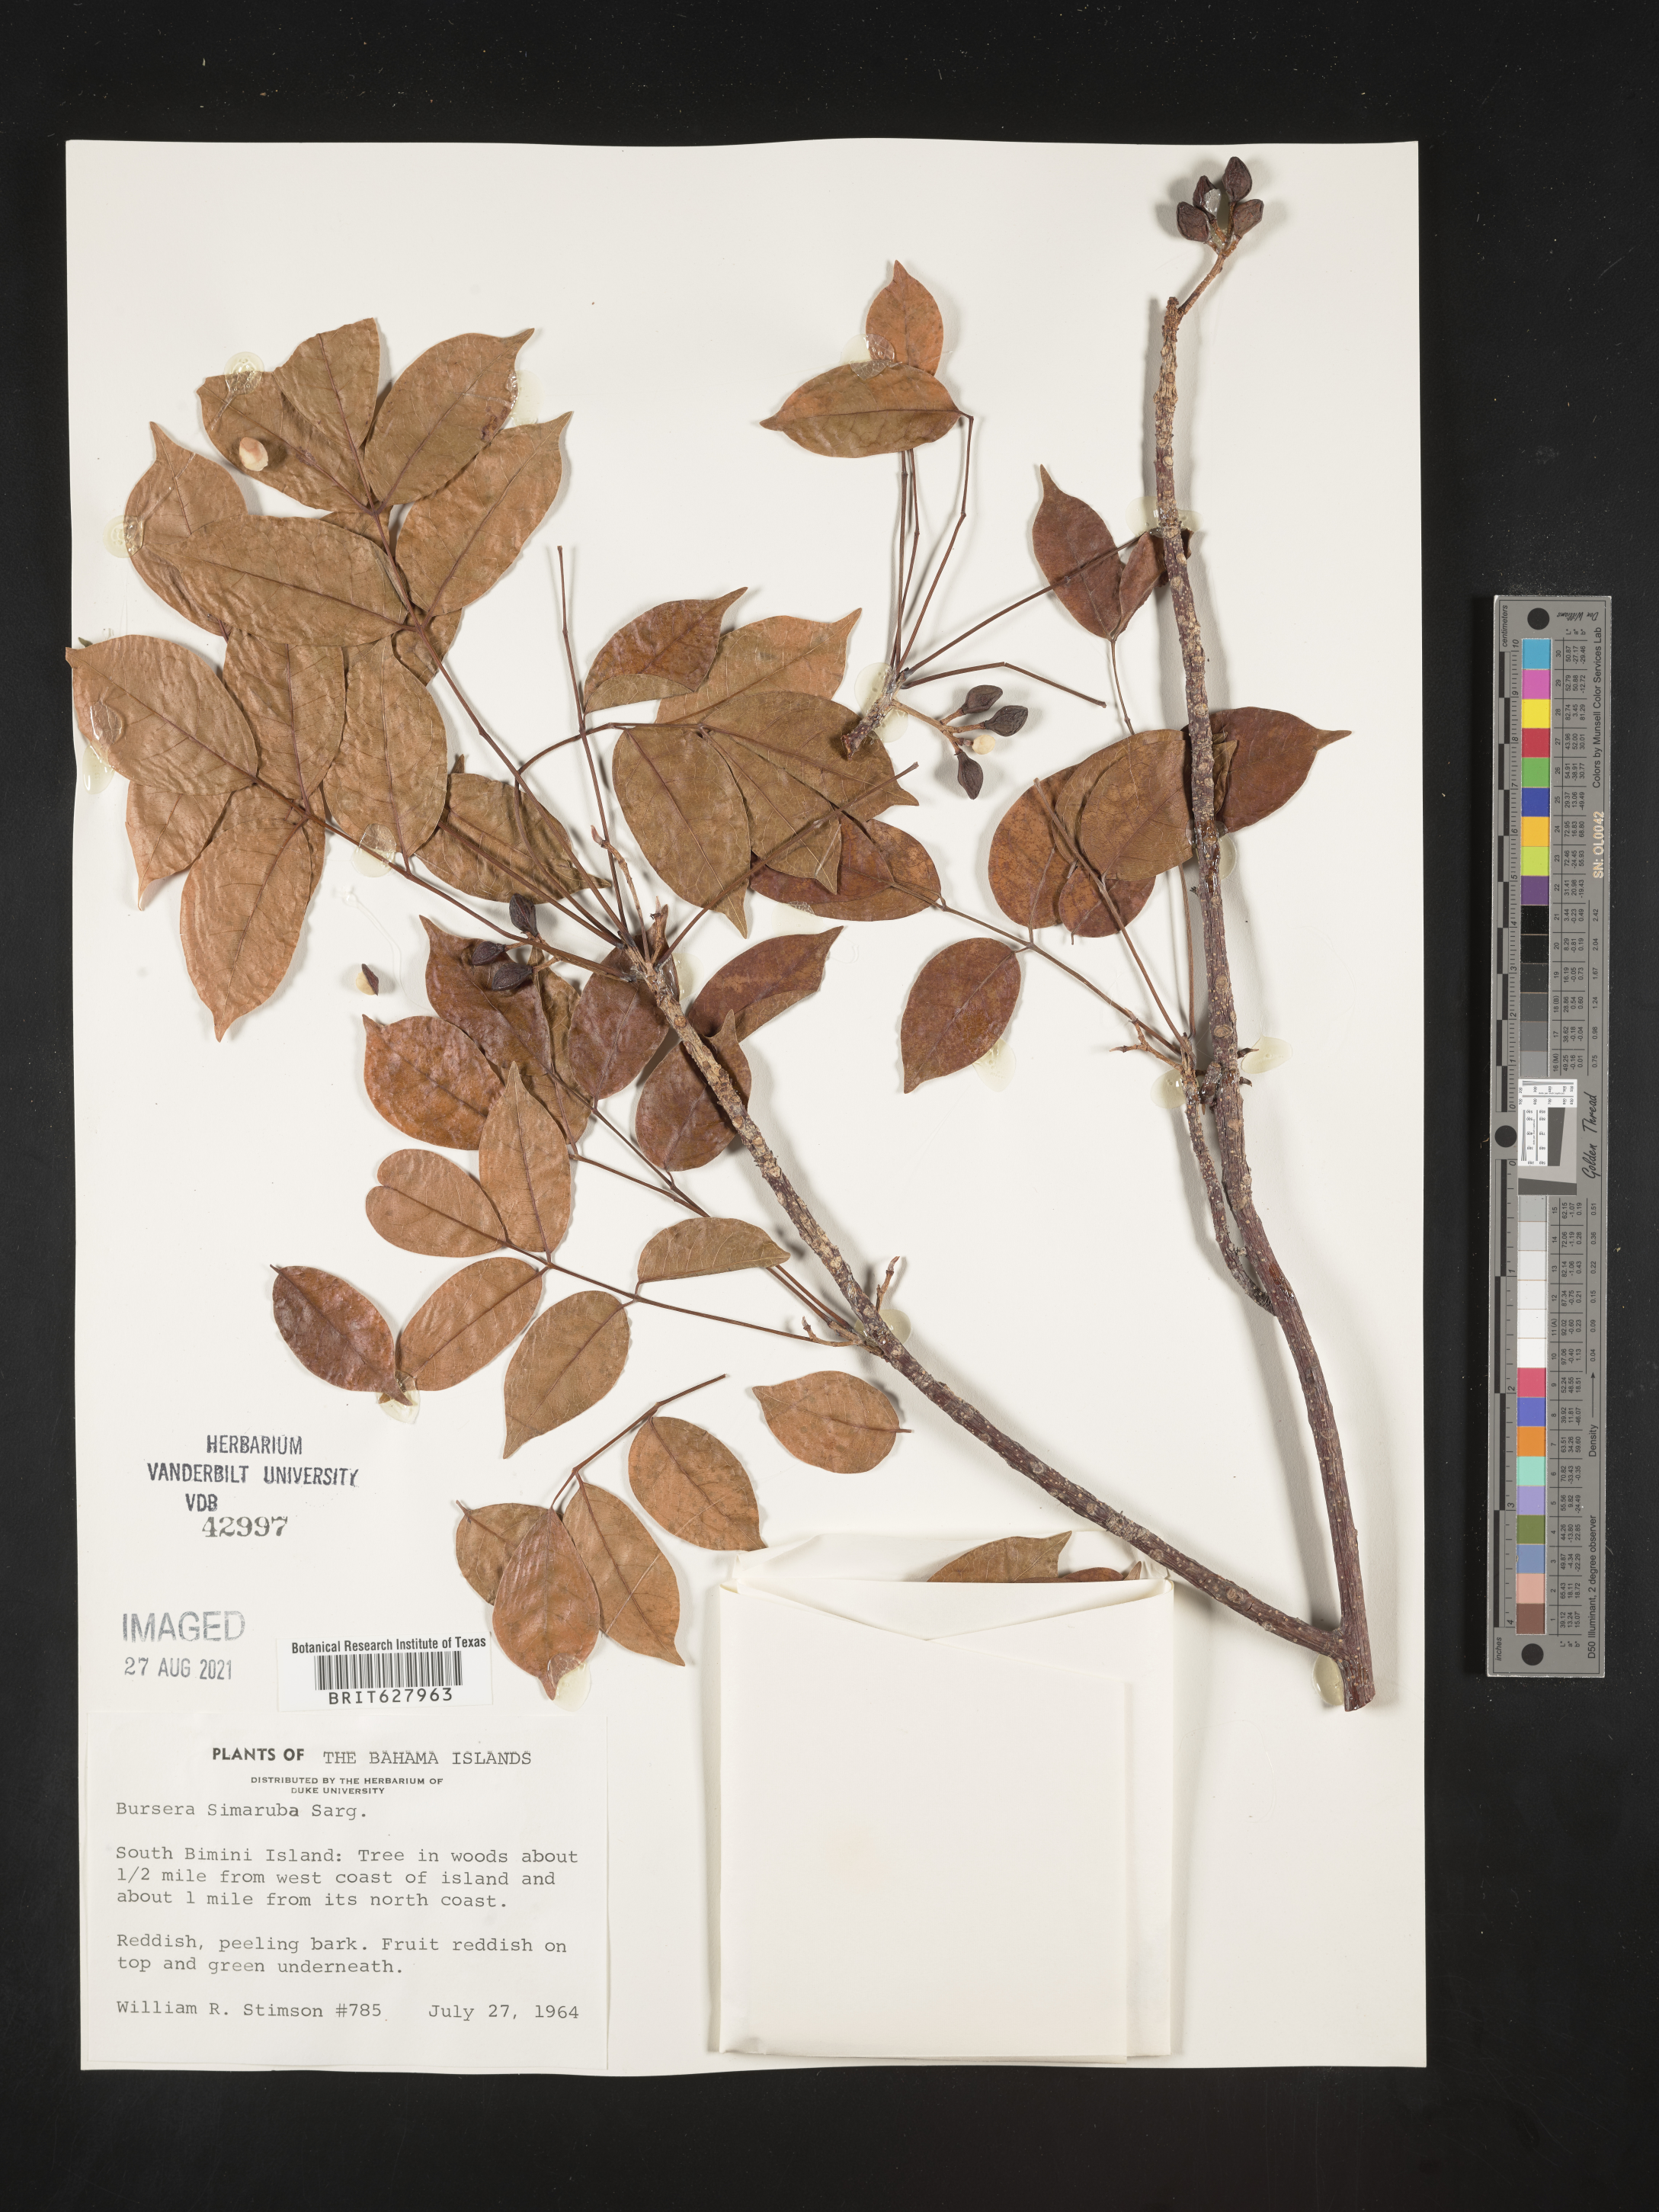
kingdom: Plantae
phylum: Tracheophyta
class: Magnoliopsida
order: Sapindales
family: Burseraceae
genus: Bursera
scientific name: Bursera simaruba
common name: Turpentine tree
